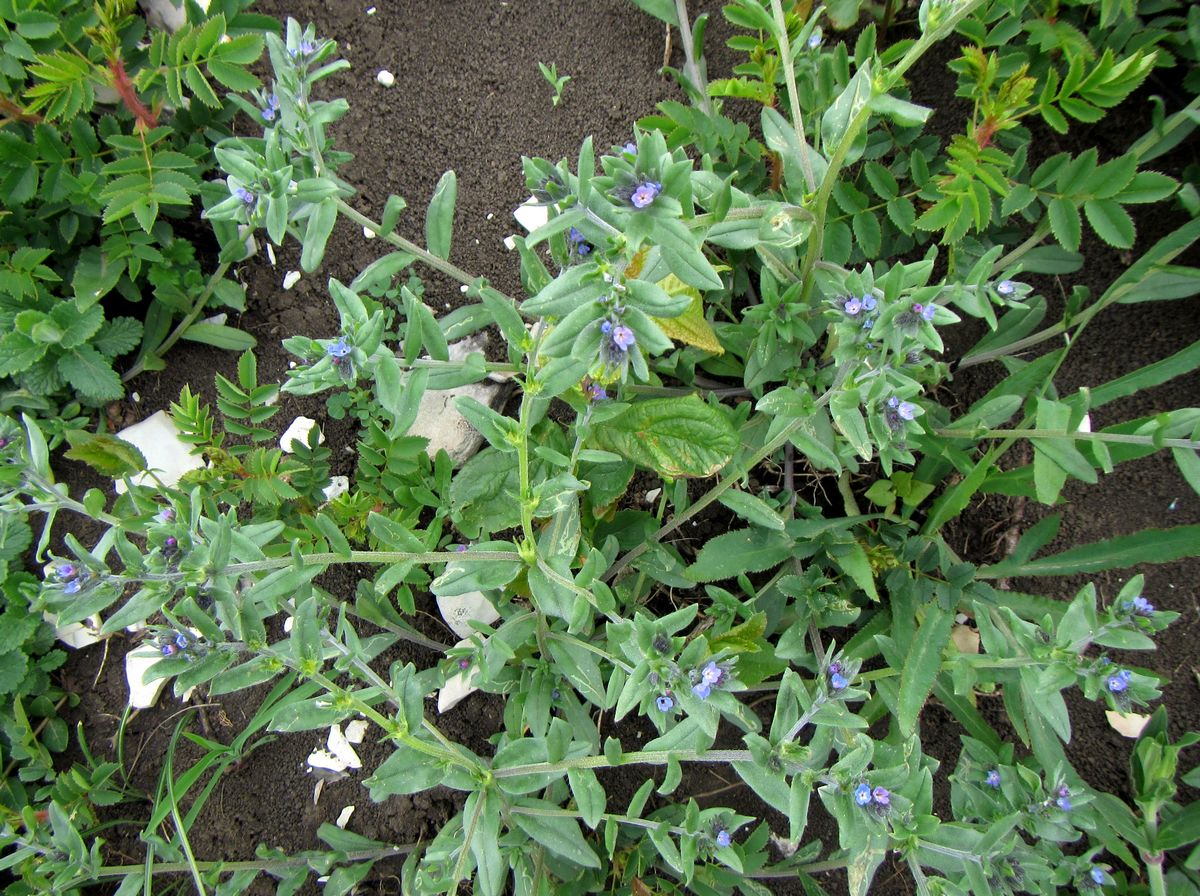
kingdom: Plantae
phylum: Tracheophyta
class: Magnoliopsida
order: Boraginales
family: Boraginaceae
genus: Buglossoides
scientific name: Buglossoides tenuiflora
